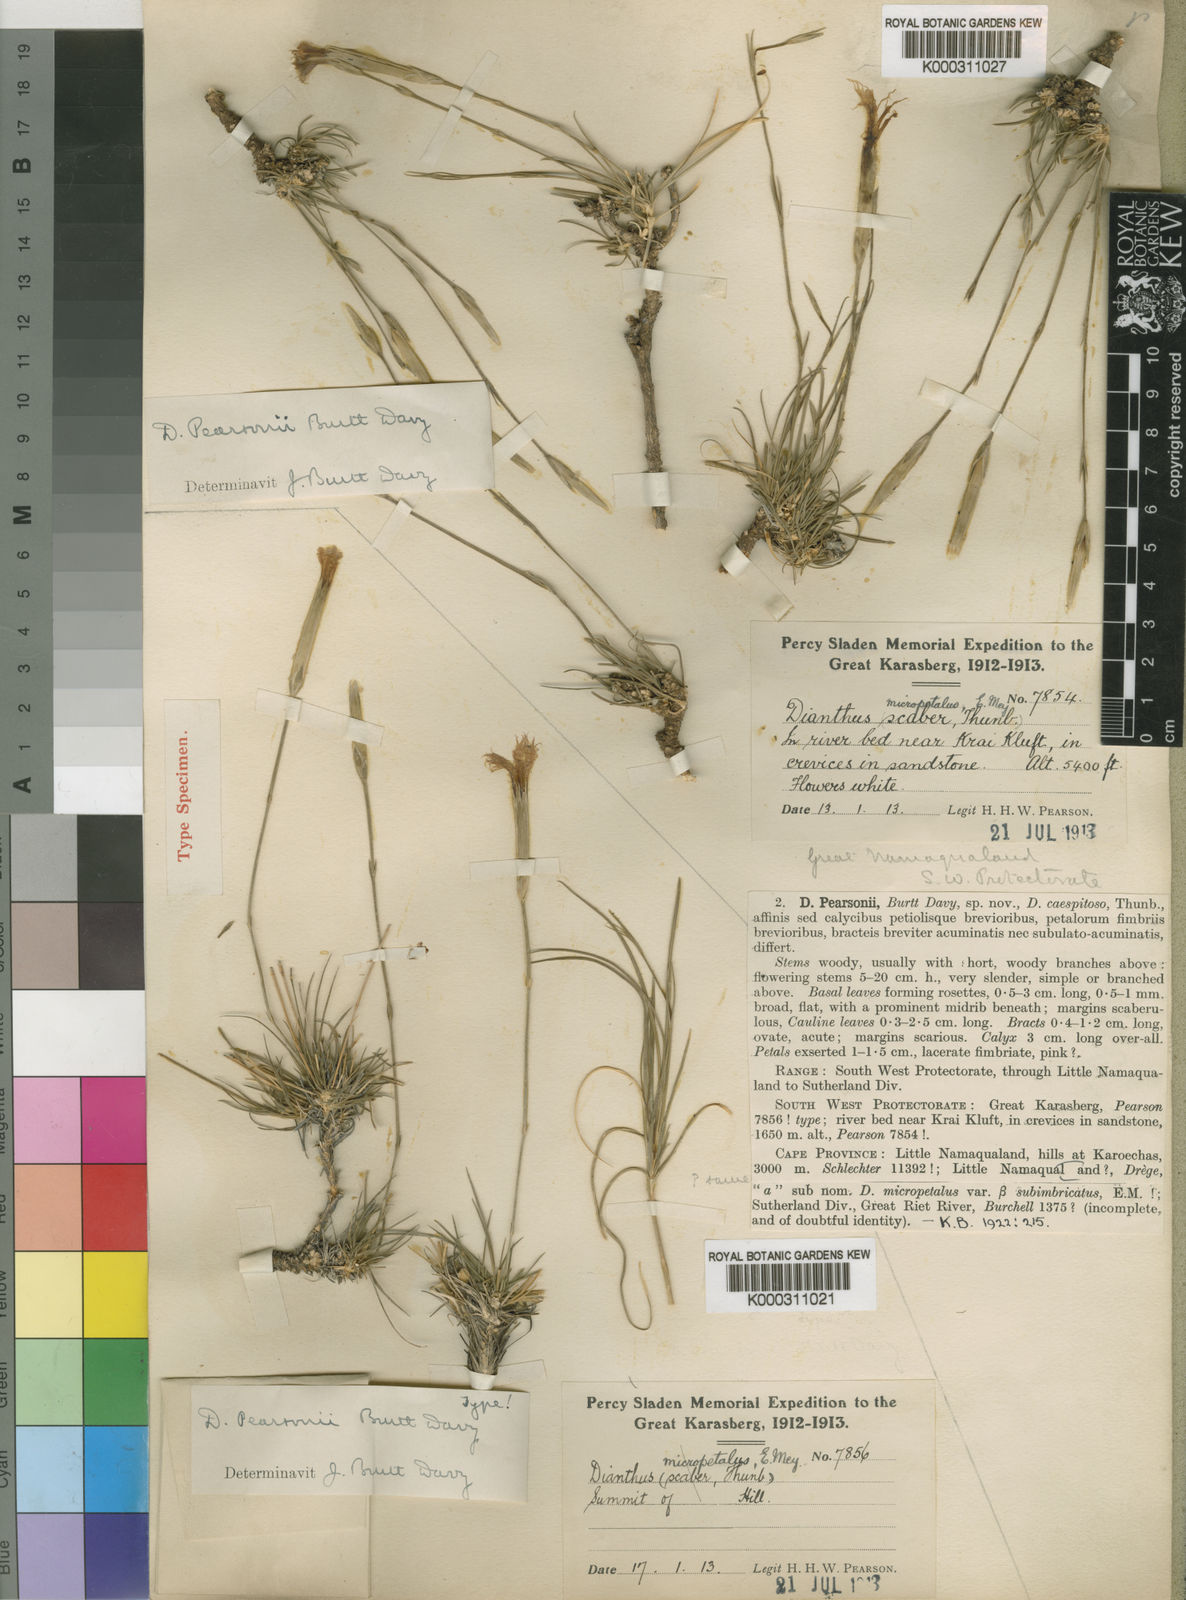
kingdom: Plantae
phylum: Tracheophyta
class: Magnoliopsida
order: Caryophyllales
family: Caryophyllaceae
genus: Dianthus
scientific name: Dianthus namaensis
